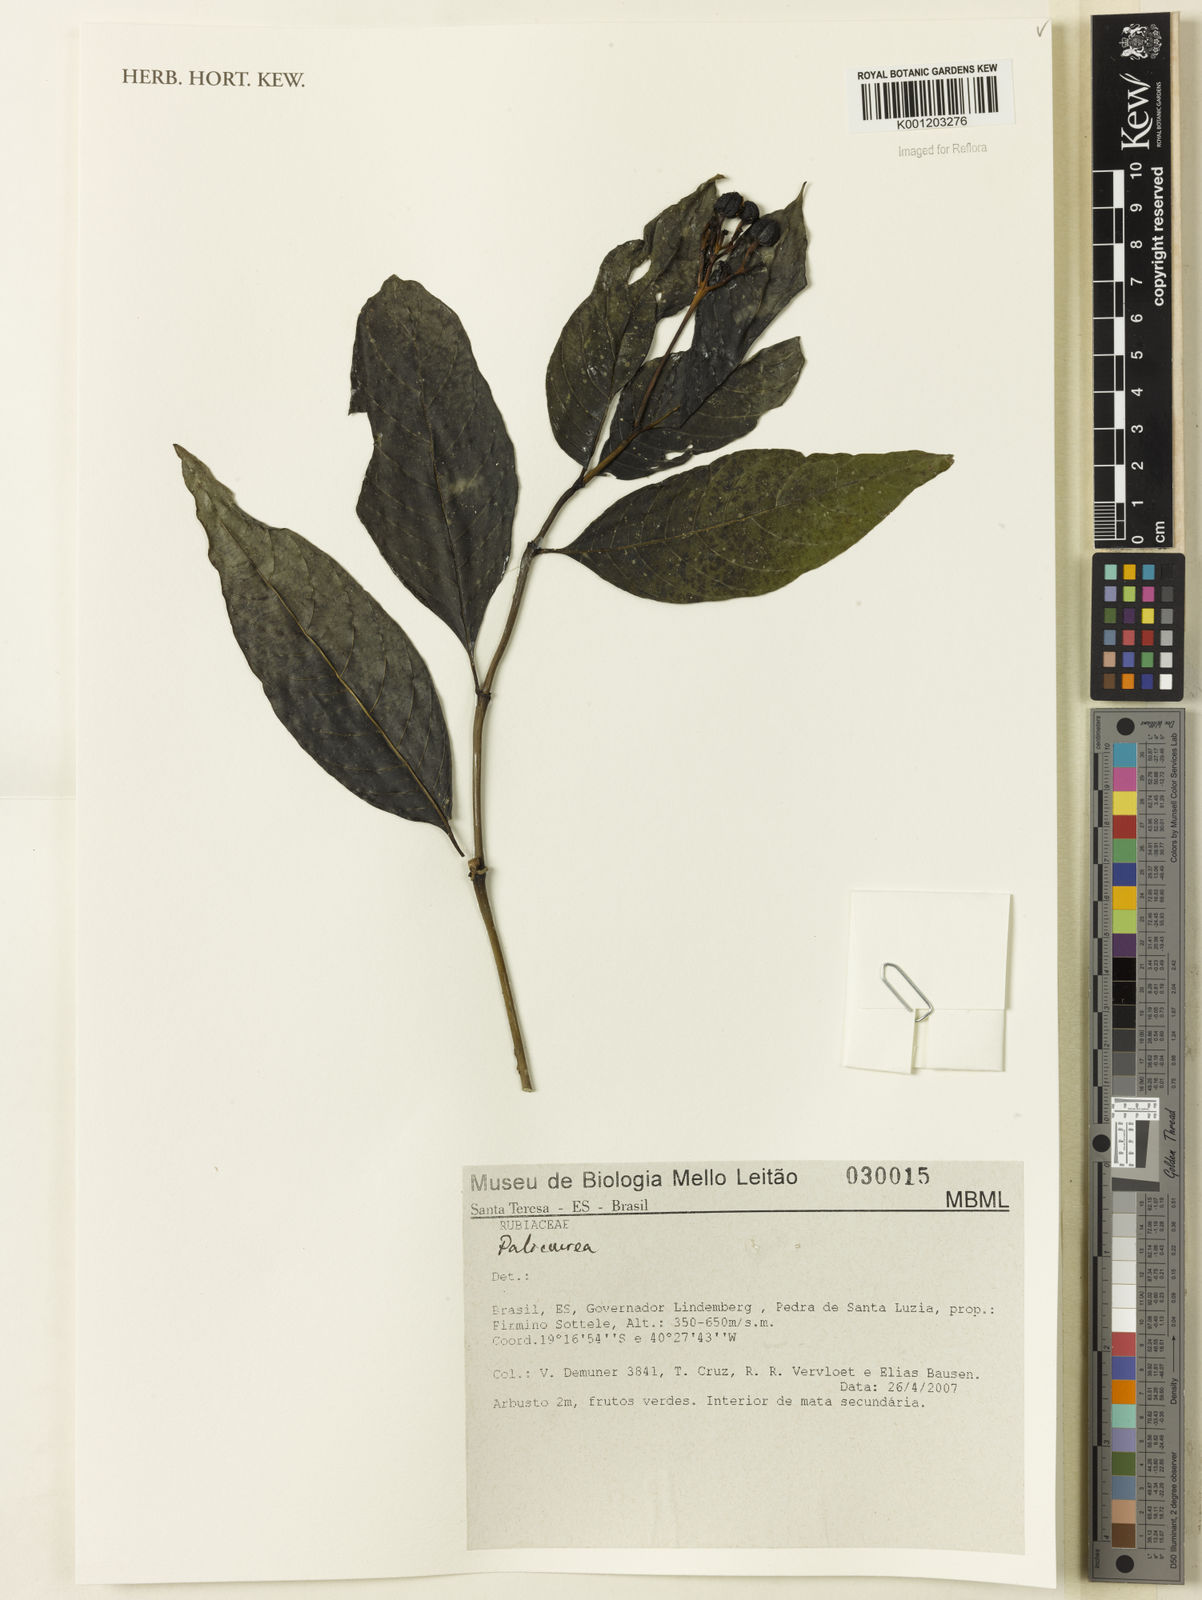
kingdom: Plantae
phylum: Tracheophyta
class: Magnoliopsida
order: Gentianales
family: Rubiaceae
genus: Palicourea
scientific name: Palicourea
